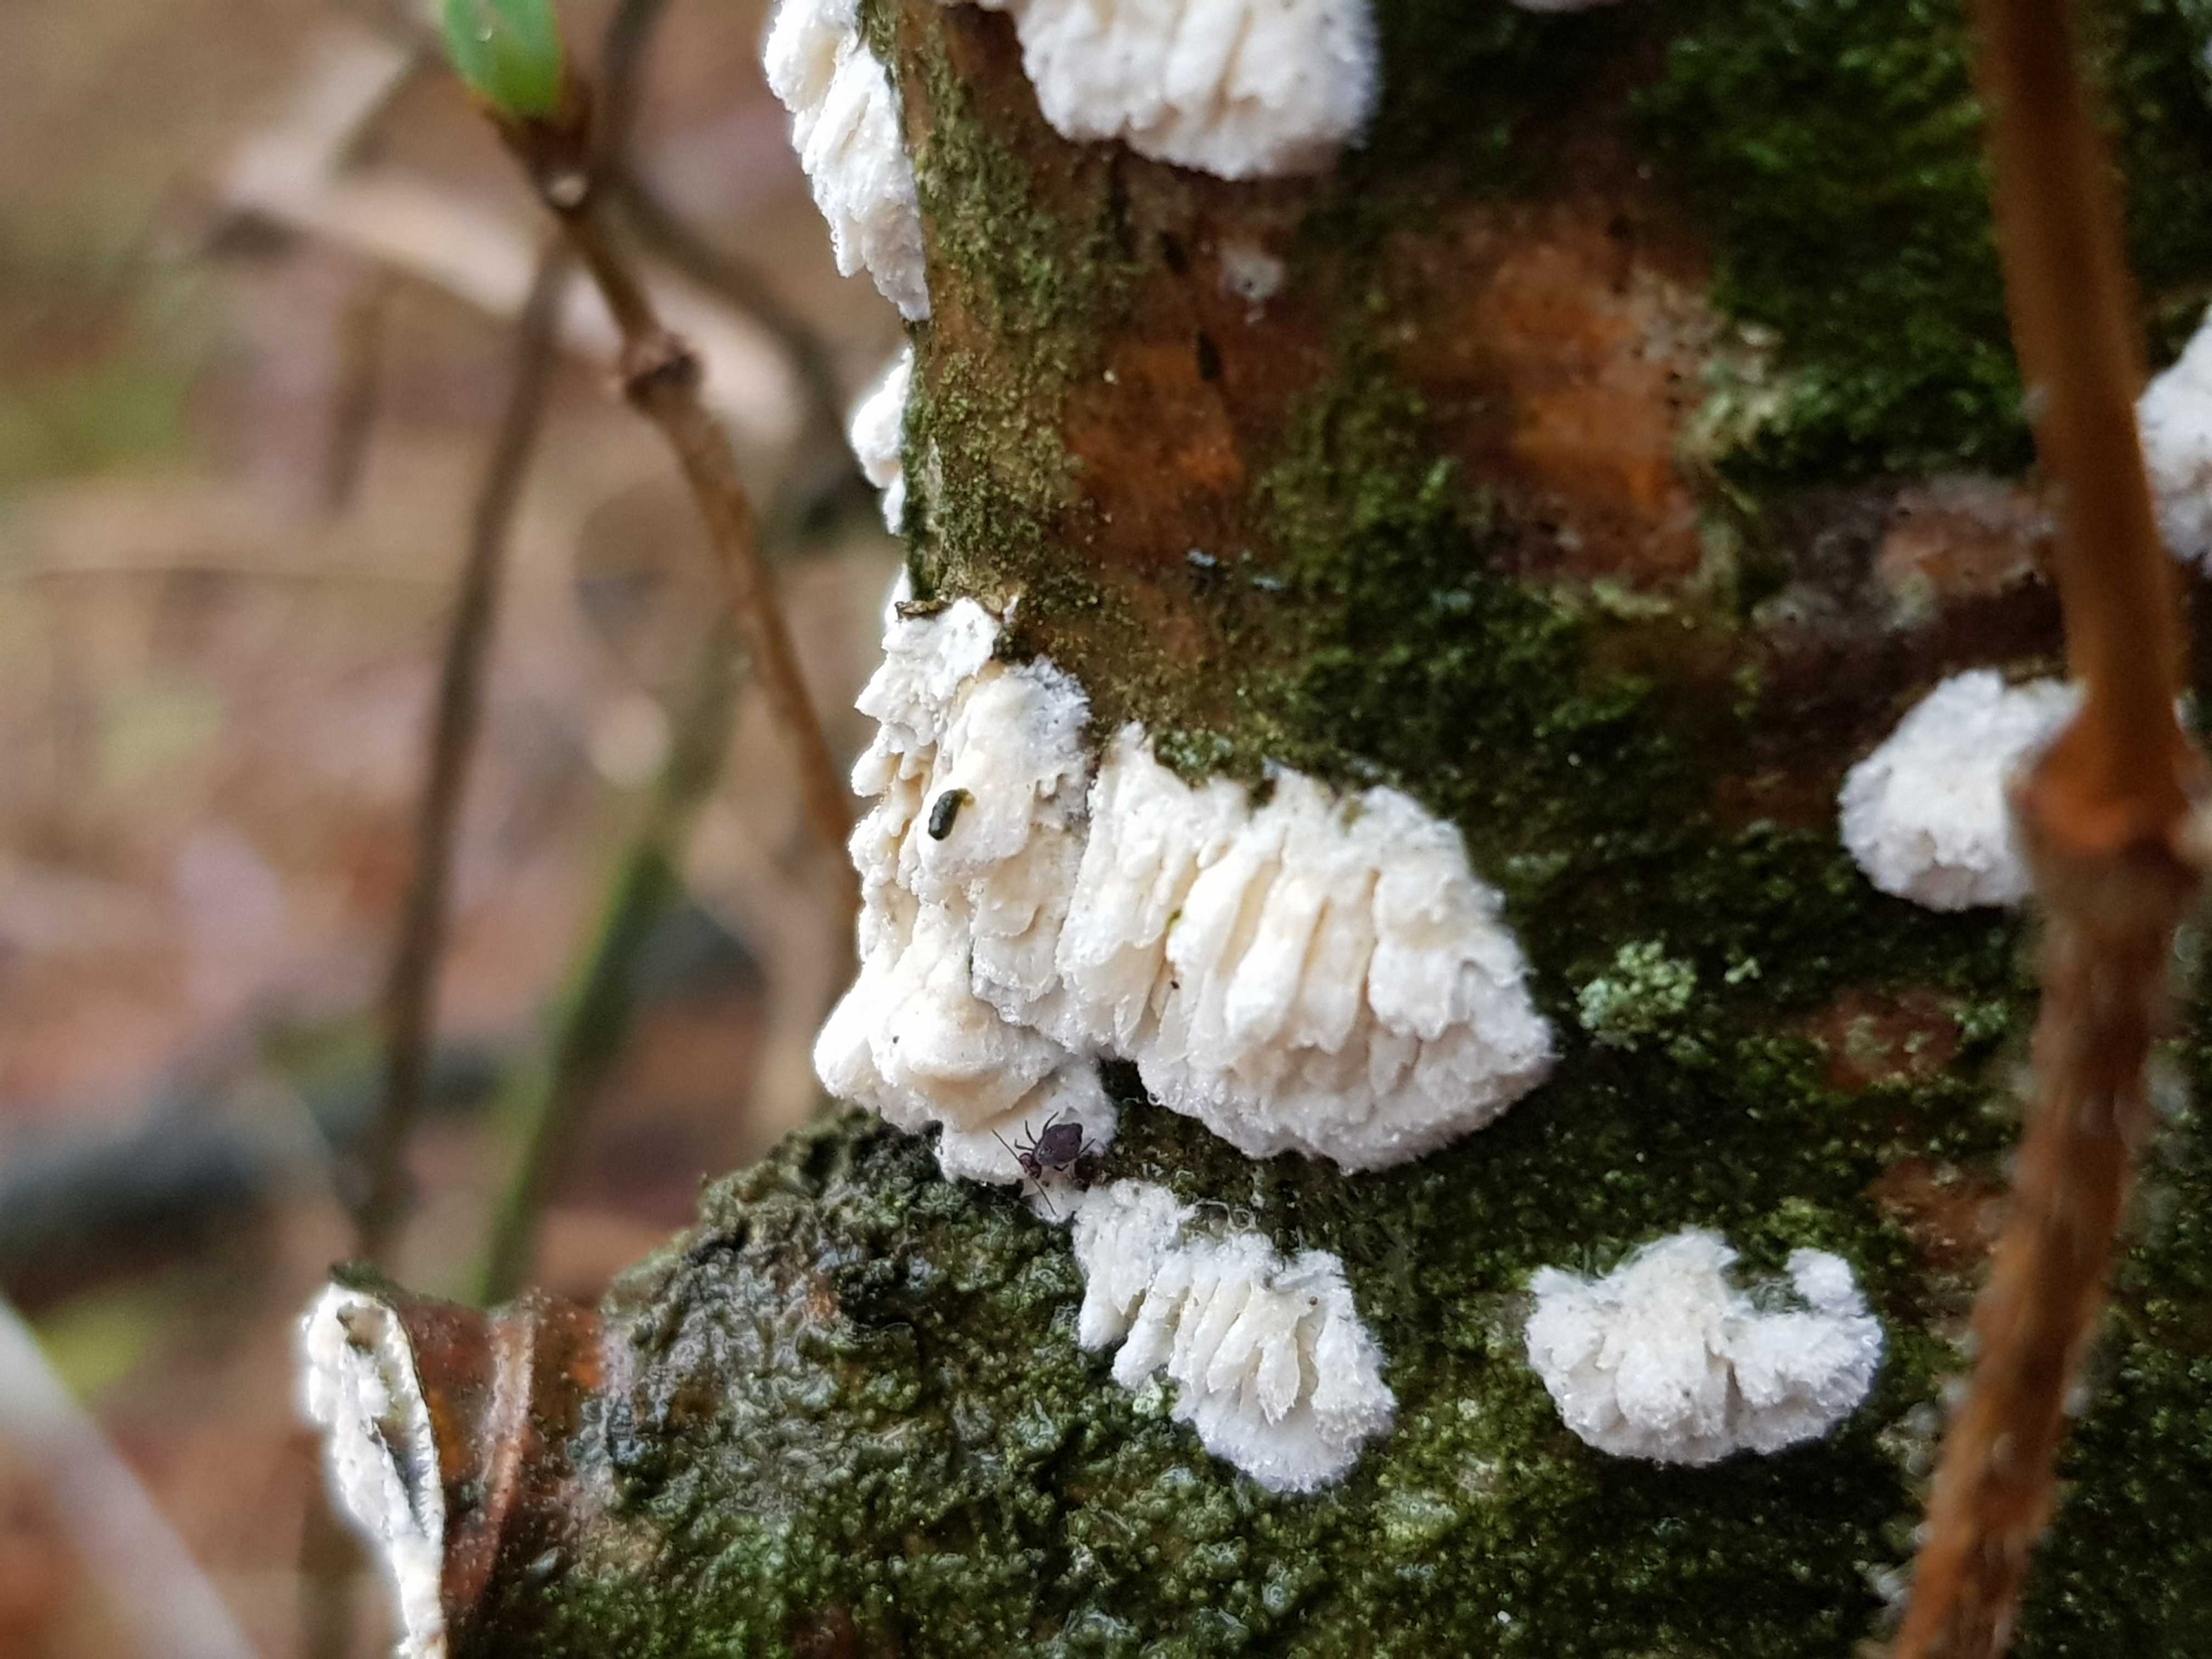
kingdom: Fungi
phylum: Basidiomycota
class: Agaricomycetes
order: Hymenochaetales
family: Schizoporaceae
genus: Xylodon
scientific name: Xylodon radula
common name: grovtandet kalkskind
